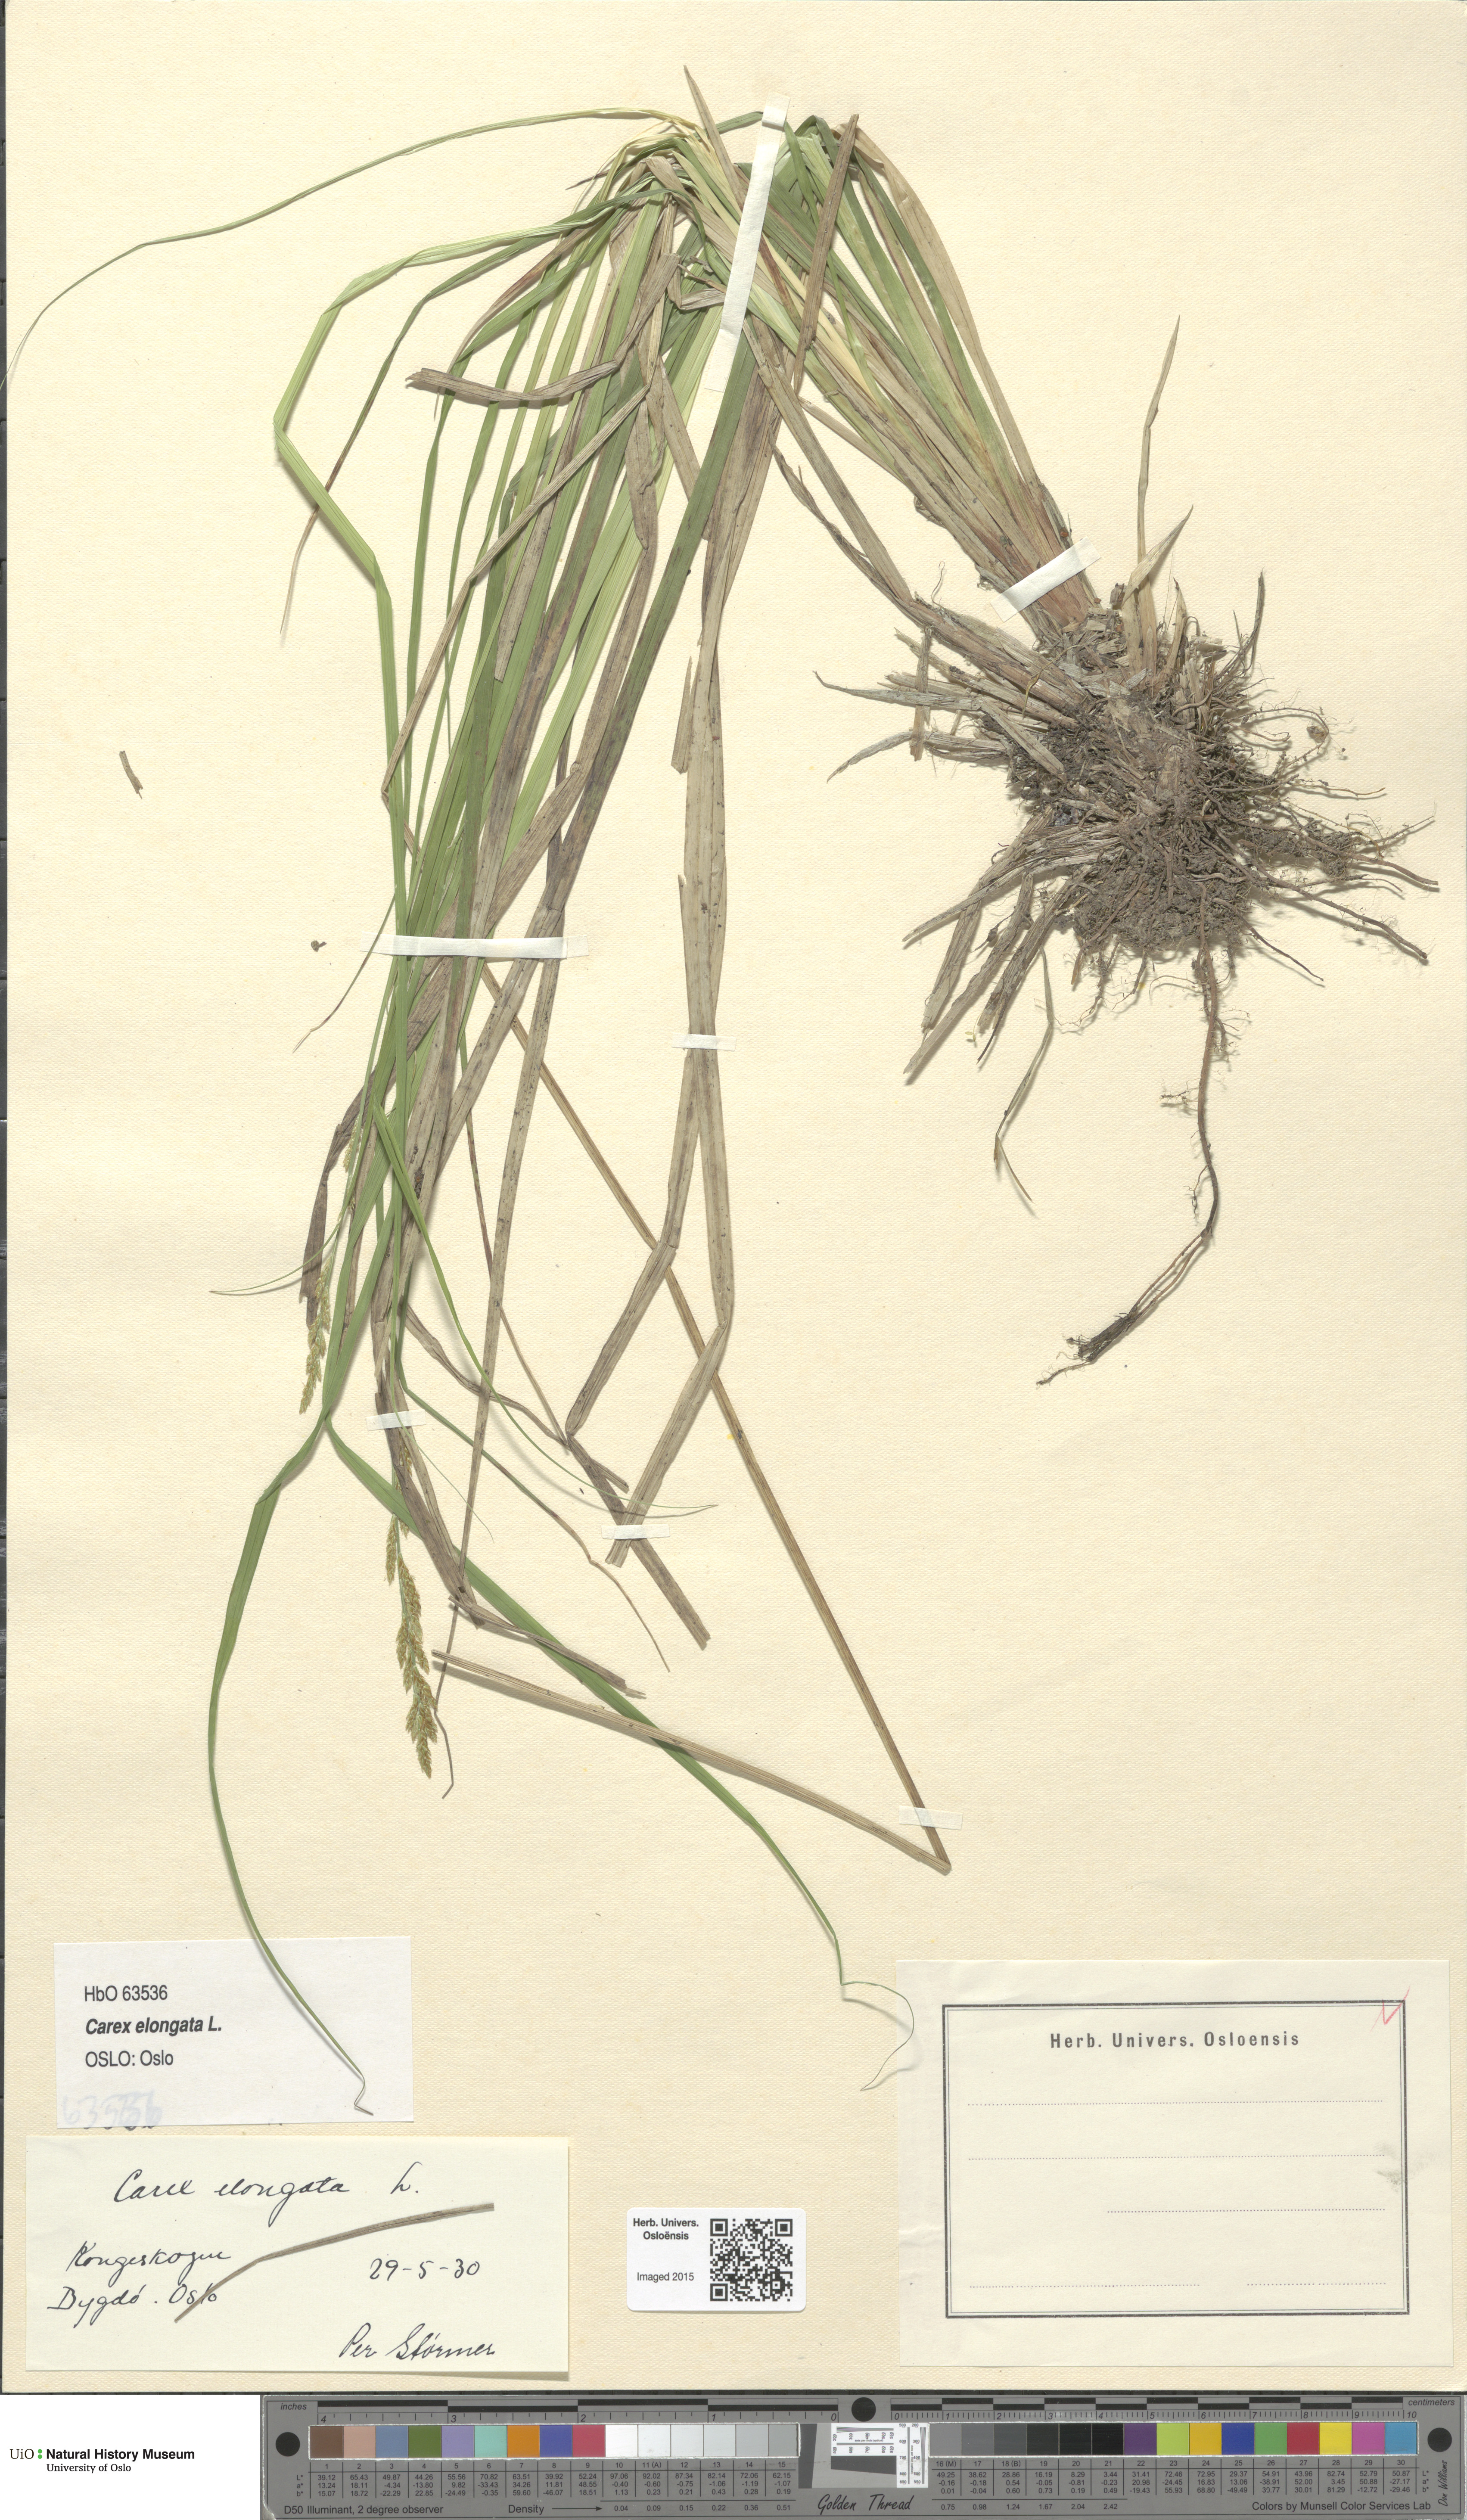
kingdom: Plantae
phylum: Tracheophyta
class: Liliopsida
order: Poales
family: Cyperaceae
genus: Carex
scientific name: Carex elongata
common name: Elongated sedge
